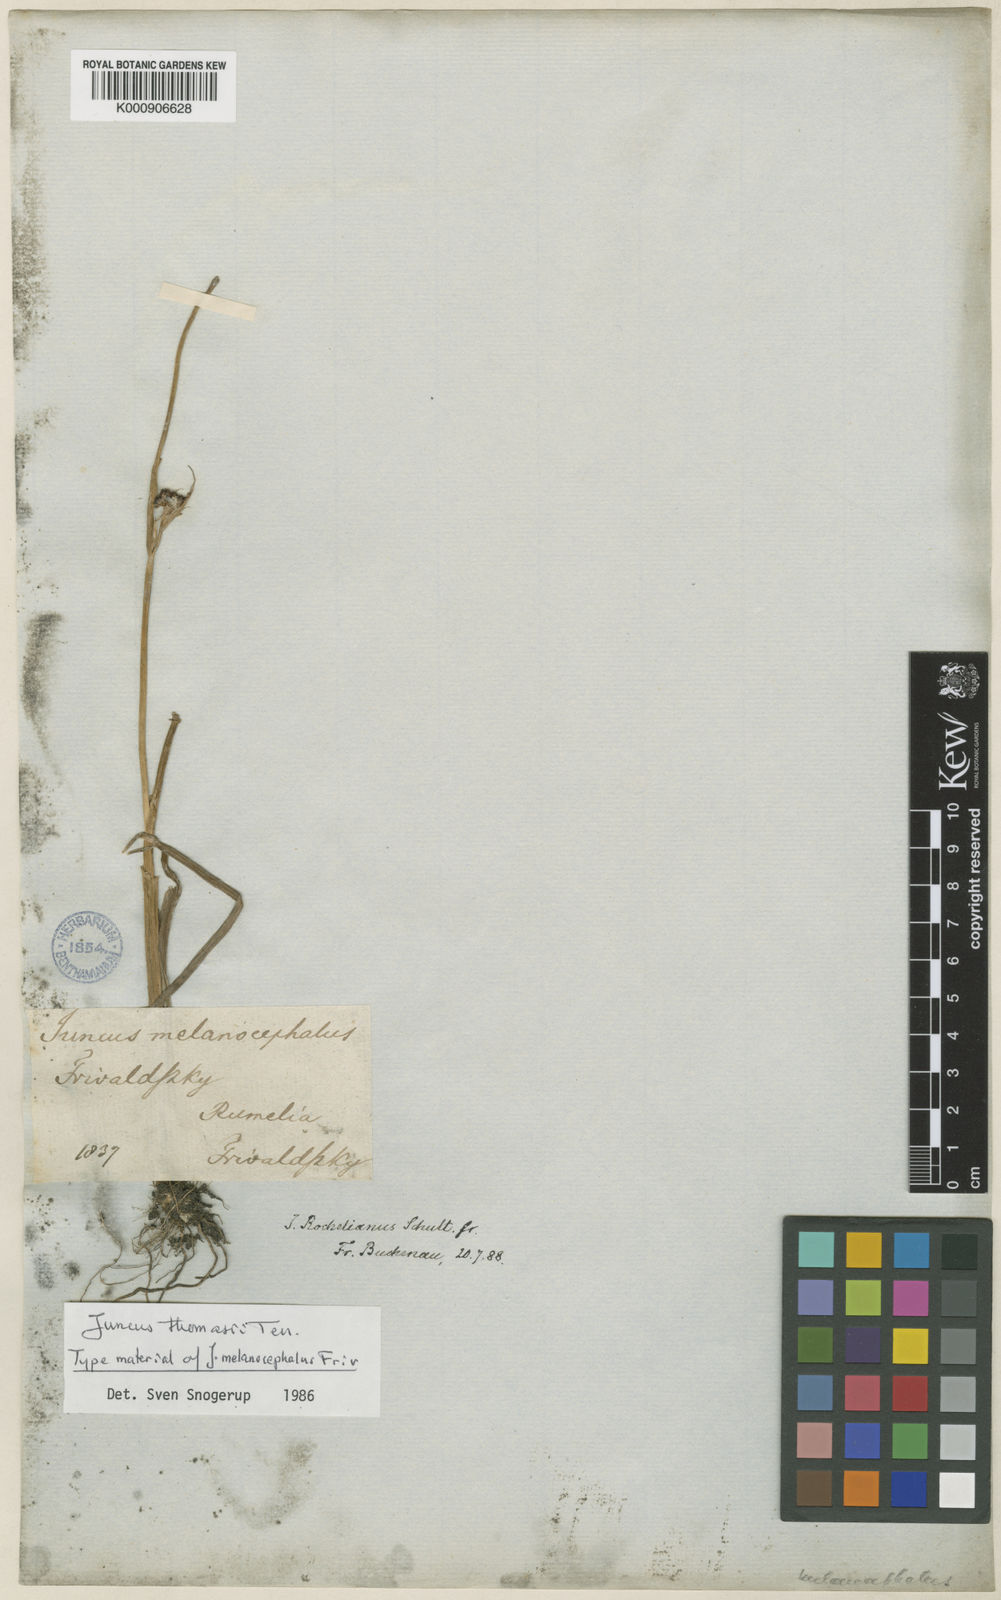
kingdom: Plantae
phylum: Tracheophyta
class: Liliopsida
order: Poales
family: Juncaceae
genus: Juncus
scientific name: Juncus thomasii
